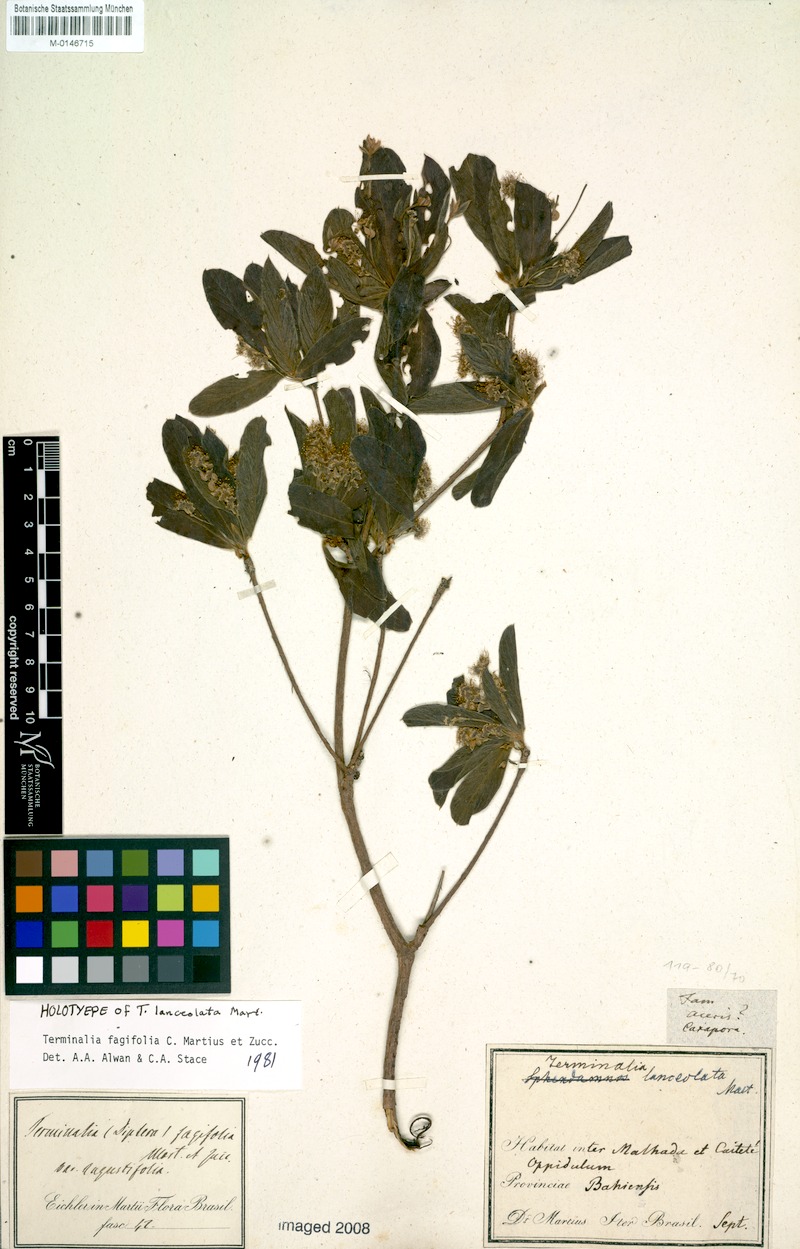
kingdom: Plantae
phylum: Tracheophyta
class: Magnoliopsida
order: Myrtales
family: Combretaceae
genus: Terminalia
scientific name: Terminalia fagifolia
